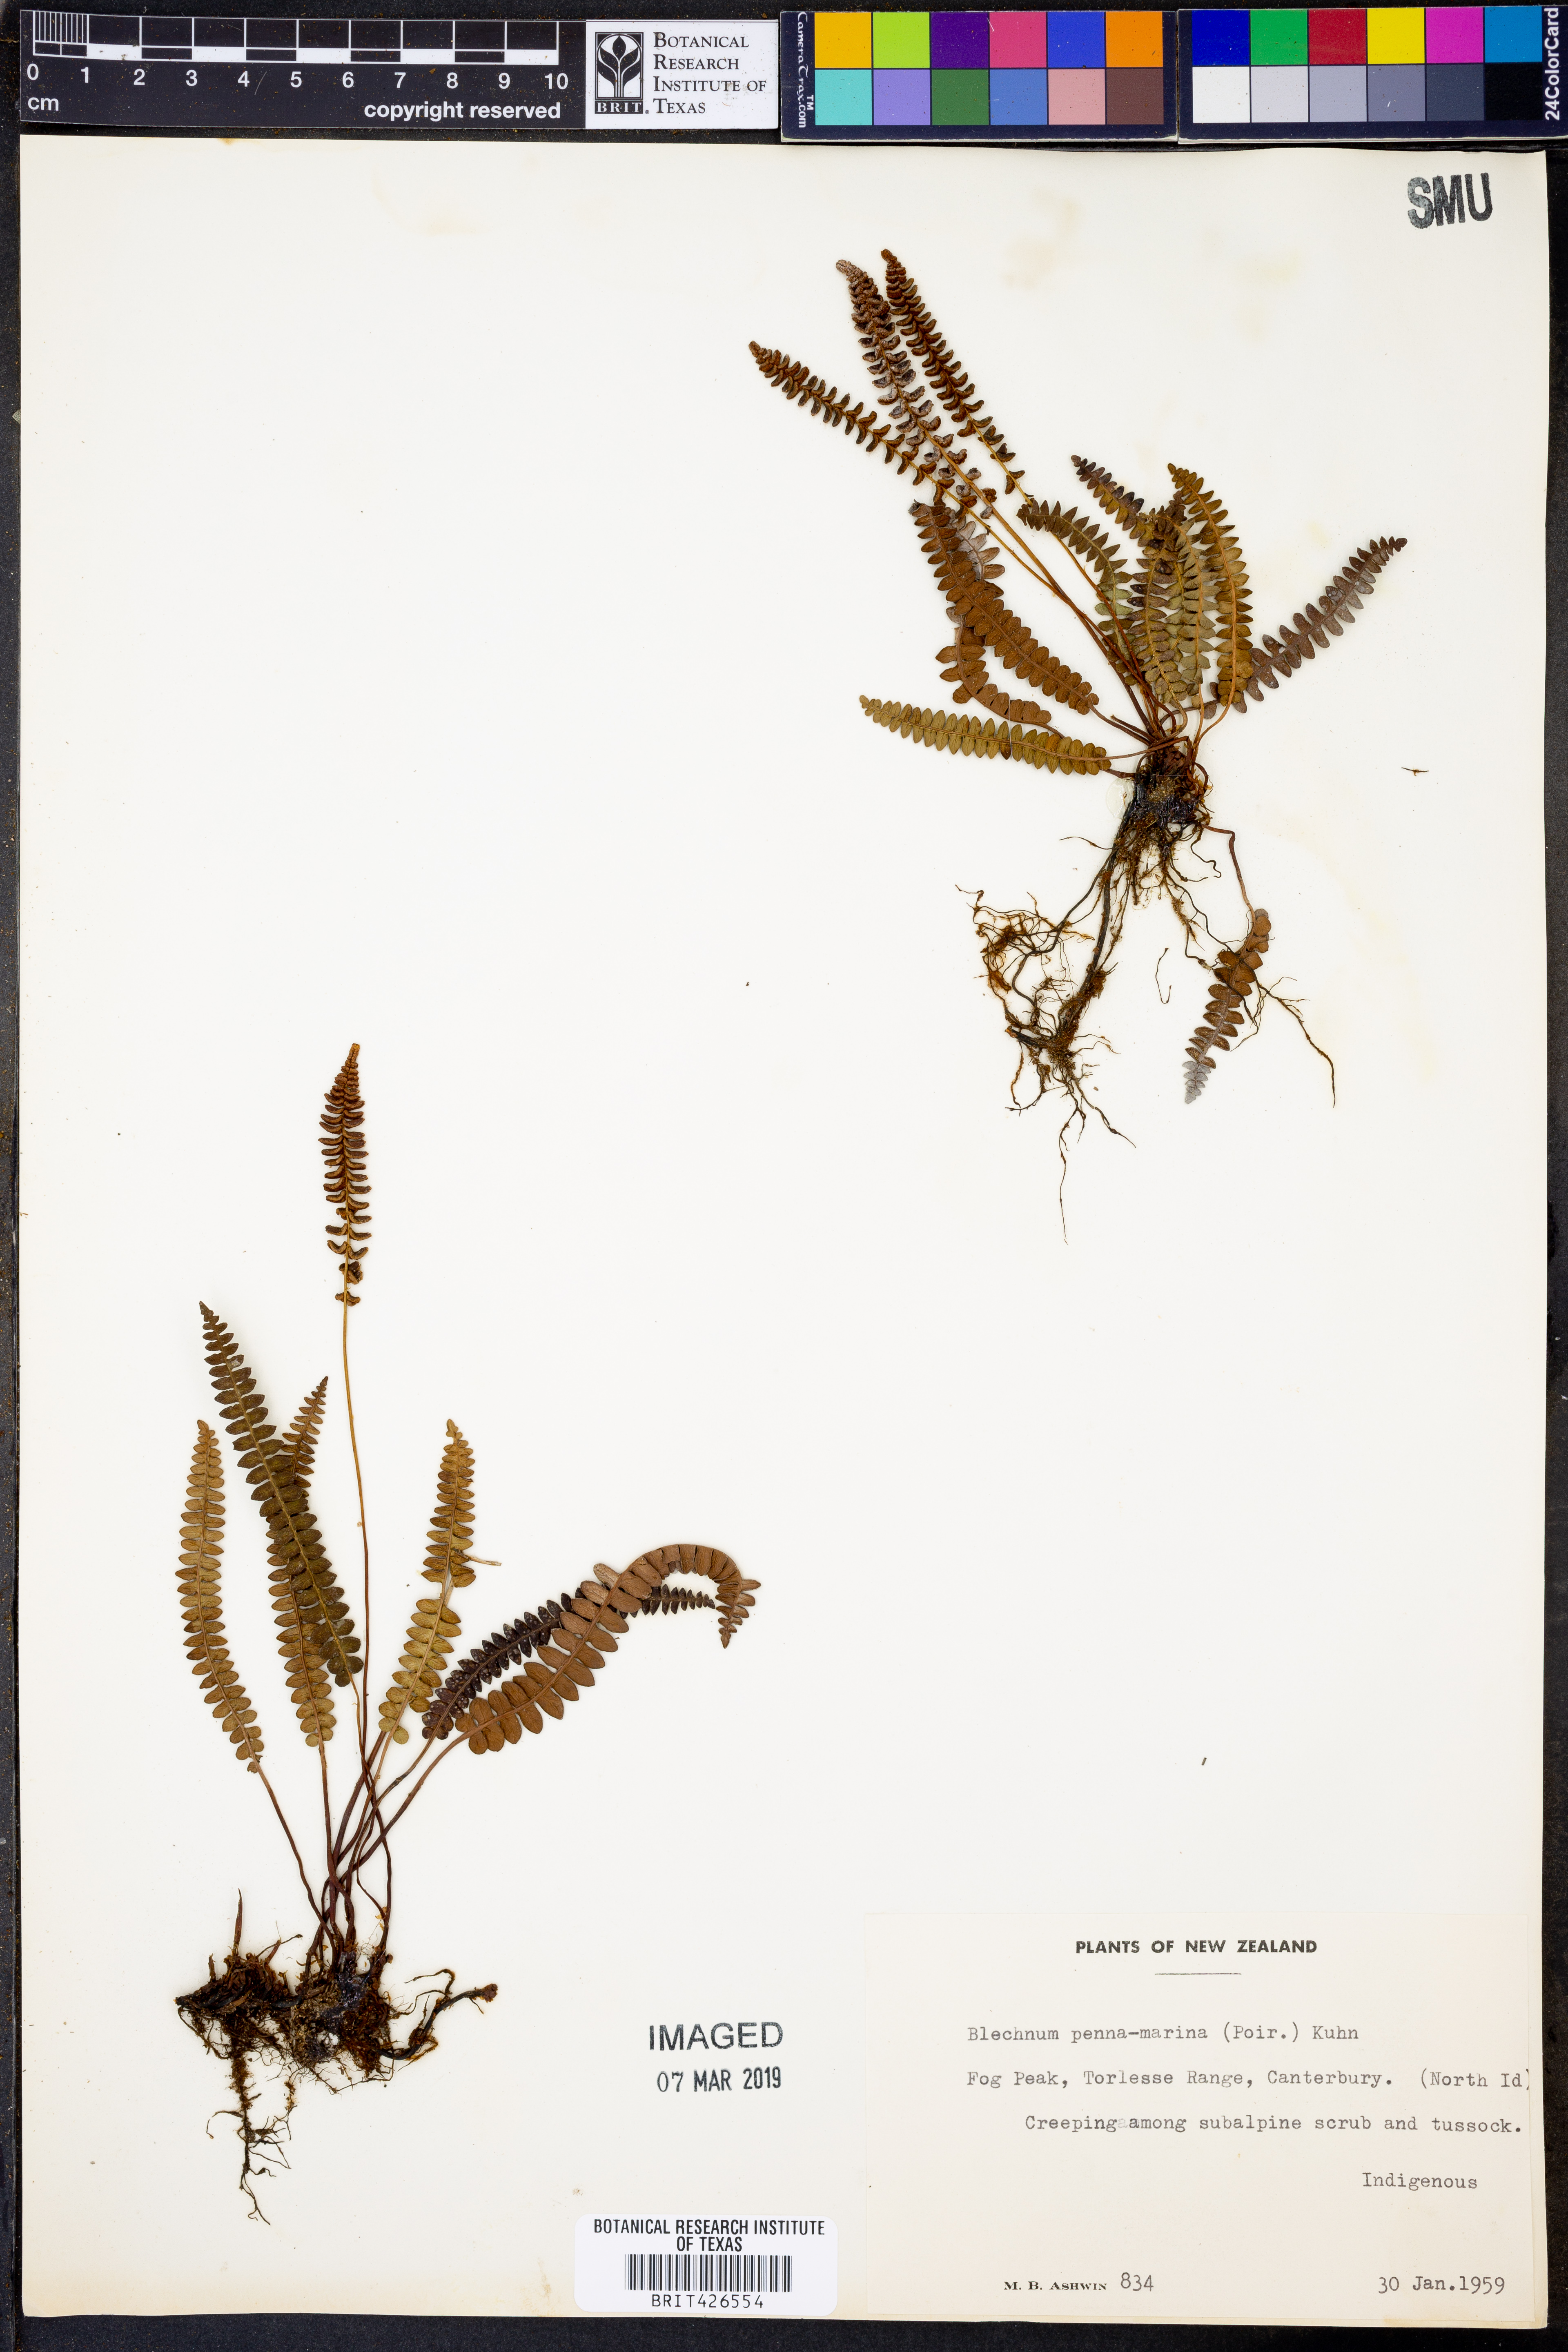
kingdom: Plantae
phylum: Tracheophyta
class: Polypodiopsida
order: Polypodiales
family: Blechnaceae
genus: Austroblechnum
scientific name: Austroblechnum penna-marina
